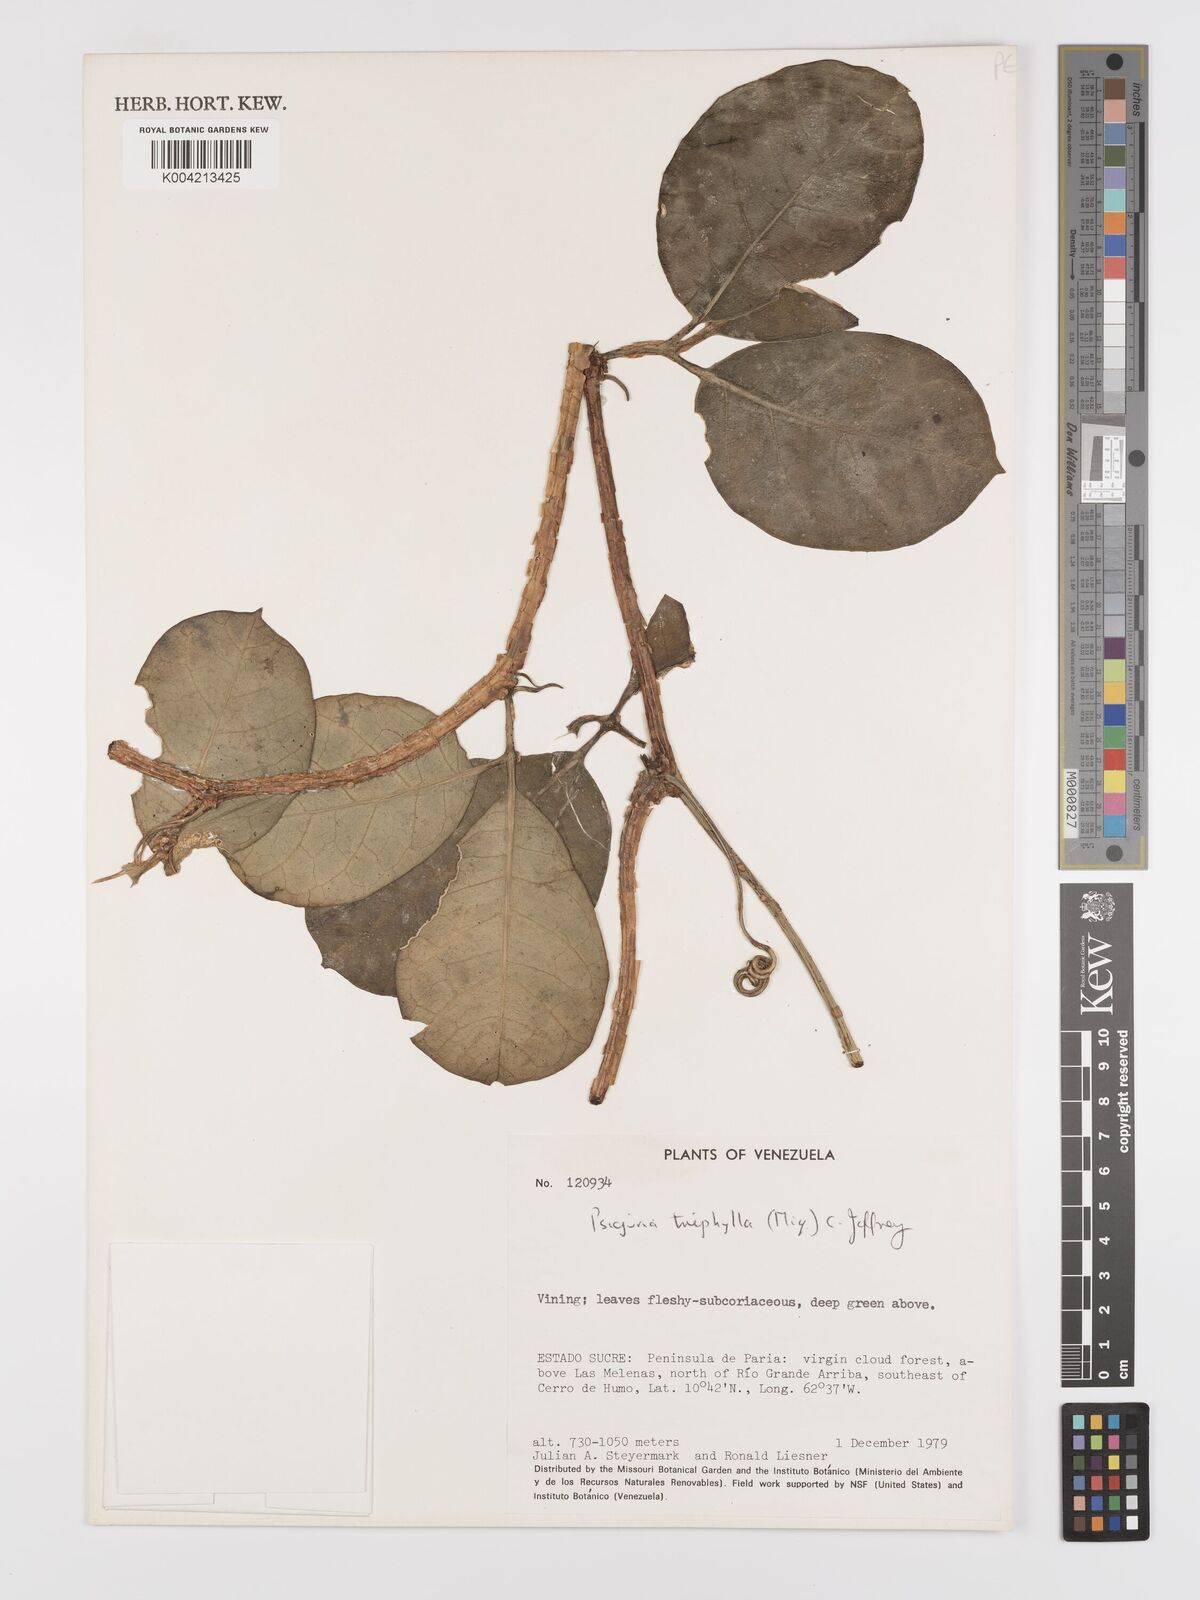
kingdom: Plantae
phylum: Tracheophyta
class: Magnoliopsida
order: Cucurbitales
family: Cucurbitaceae
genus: Psiguria
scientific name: Psiguria triphylla
